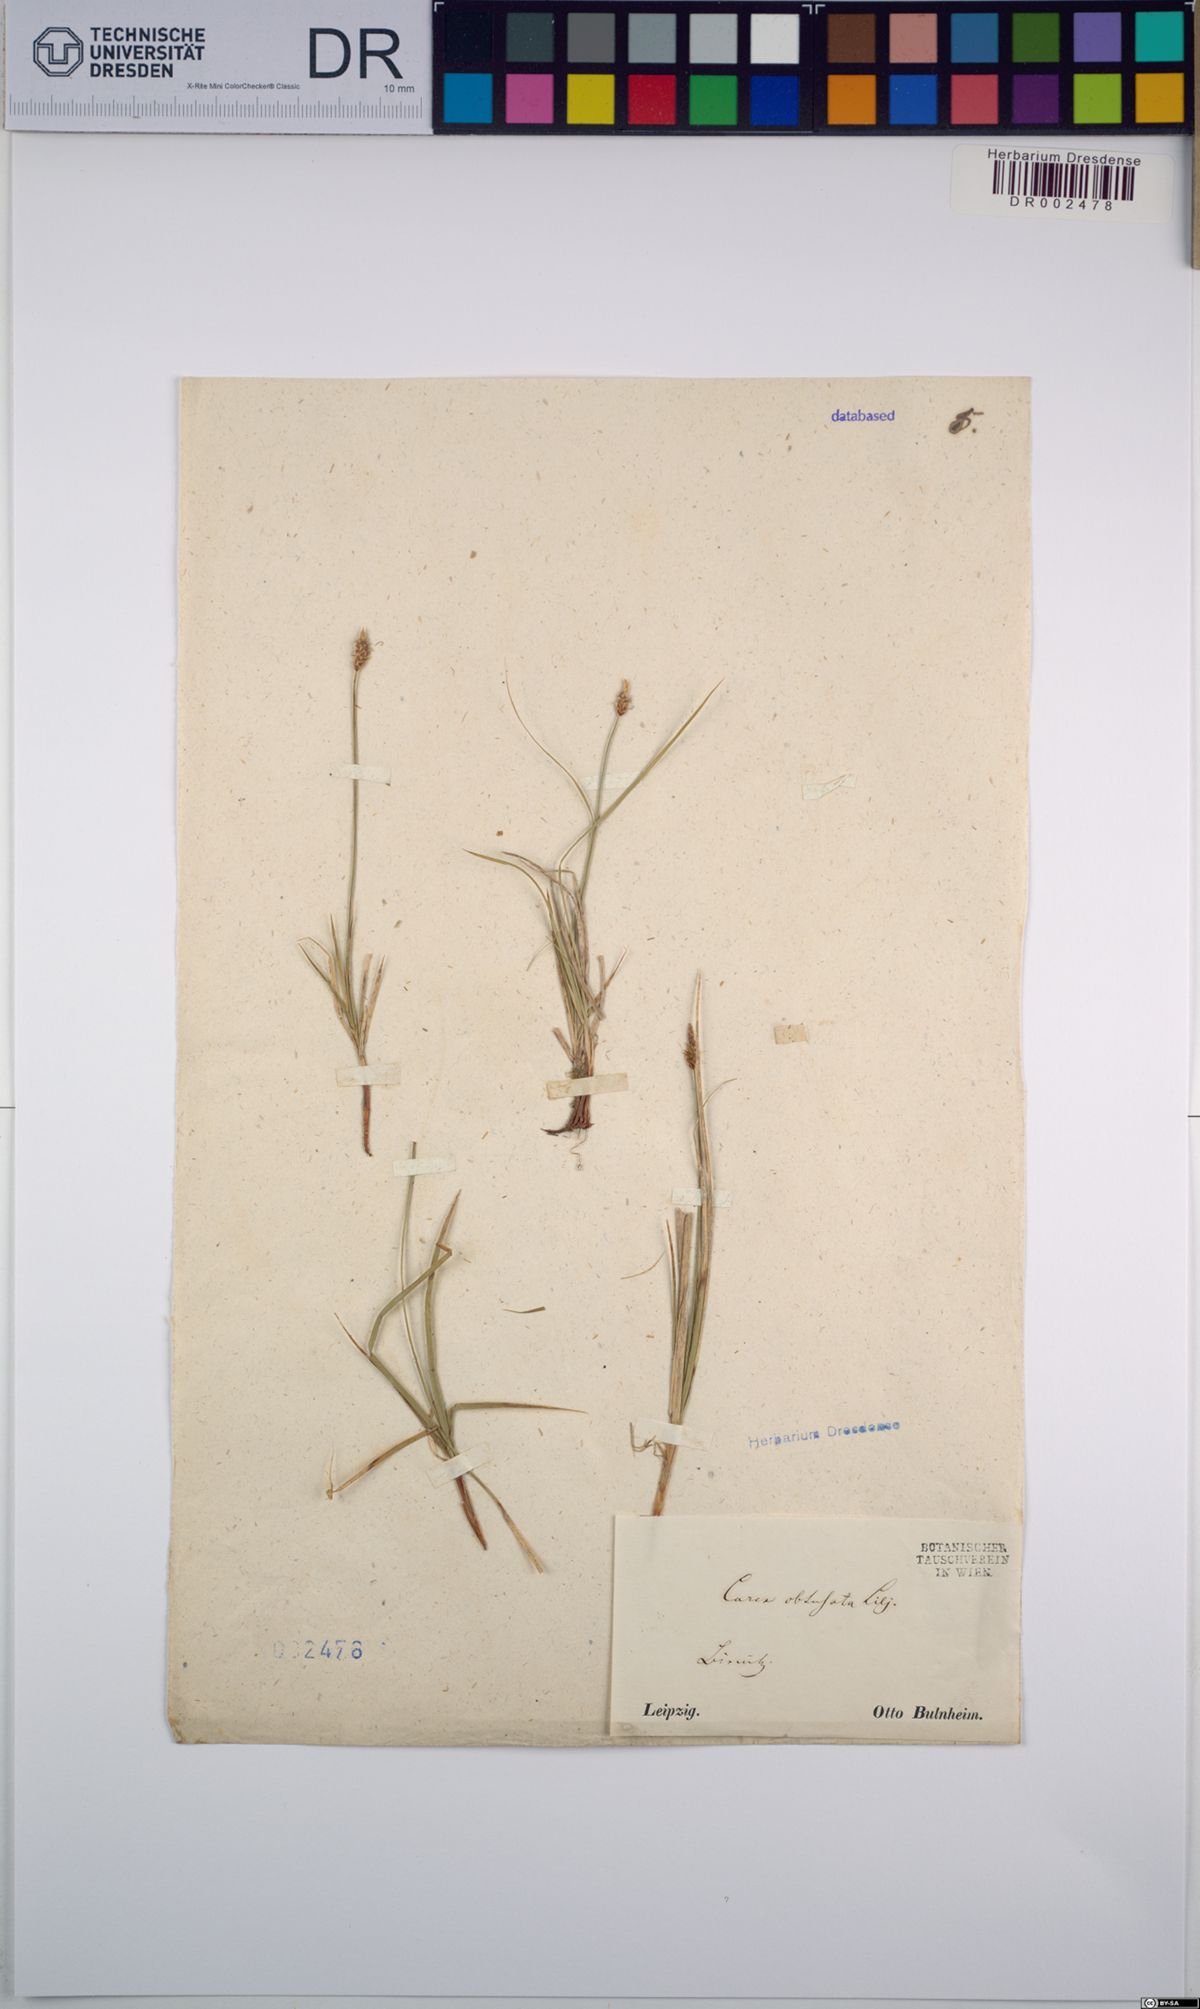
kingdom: Plantae
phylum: Tracheophyta
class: Liliopsida
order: Poales
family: Cyperaceae
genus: Carex
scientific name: Carex obtusata
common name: Blunt sedge
